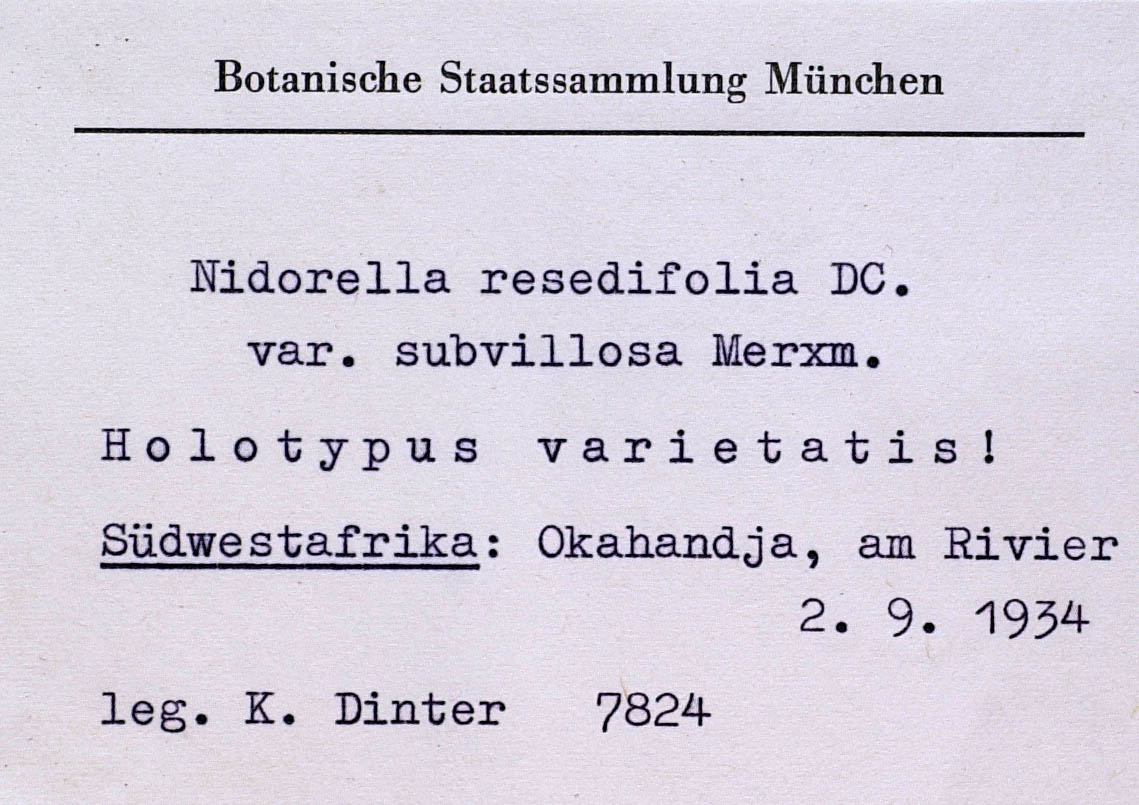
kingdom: Plantae
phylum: Tracheophyta
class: Magnoliopsida
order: Asterales
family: Asteraceae
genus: Nidorella
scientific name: Nidorella resedifolia
